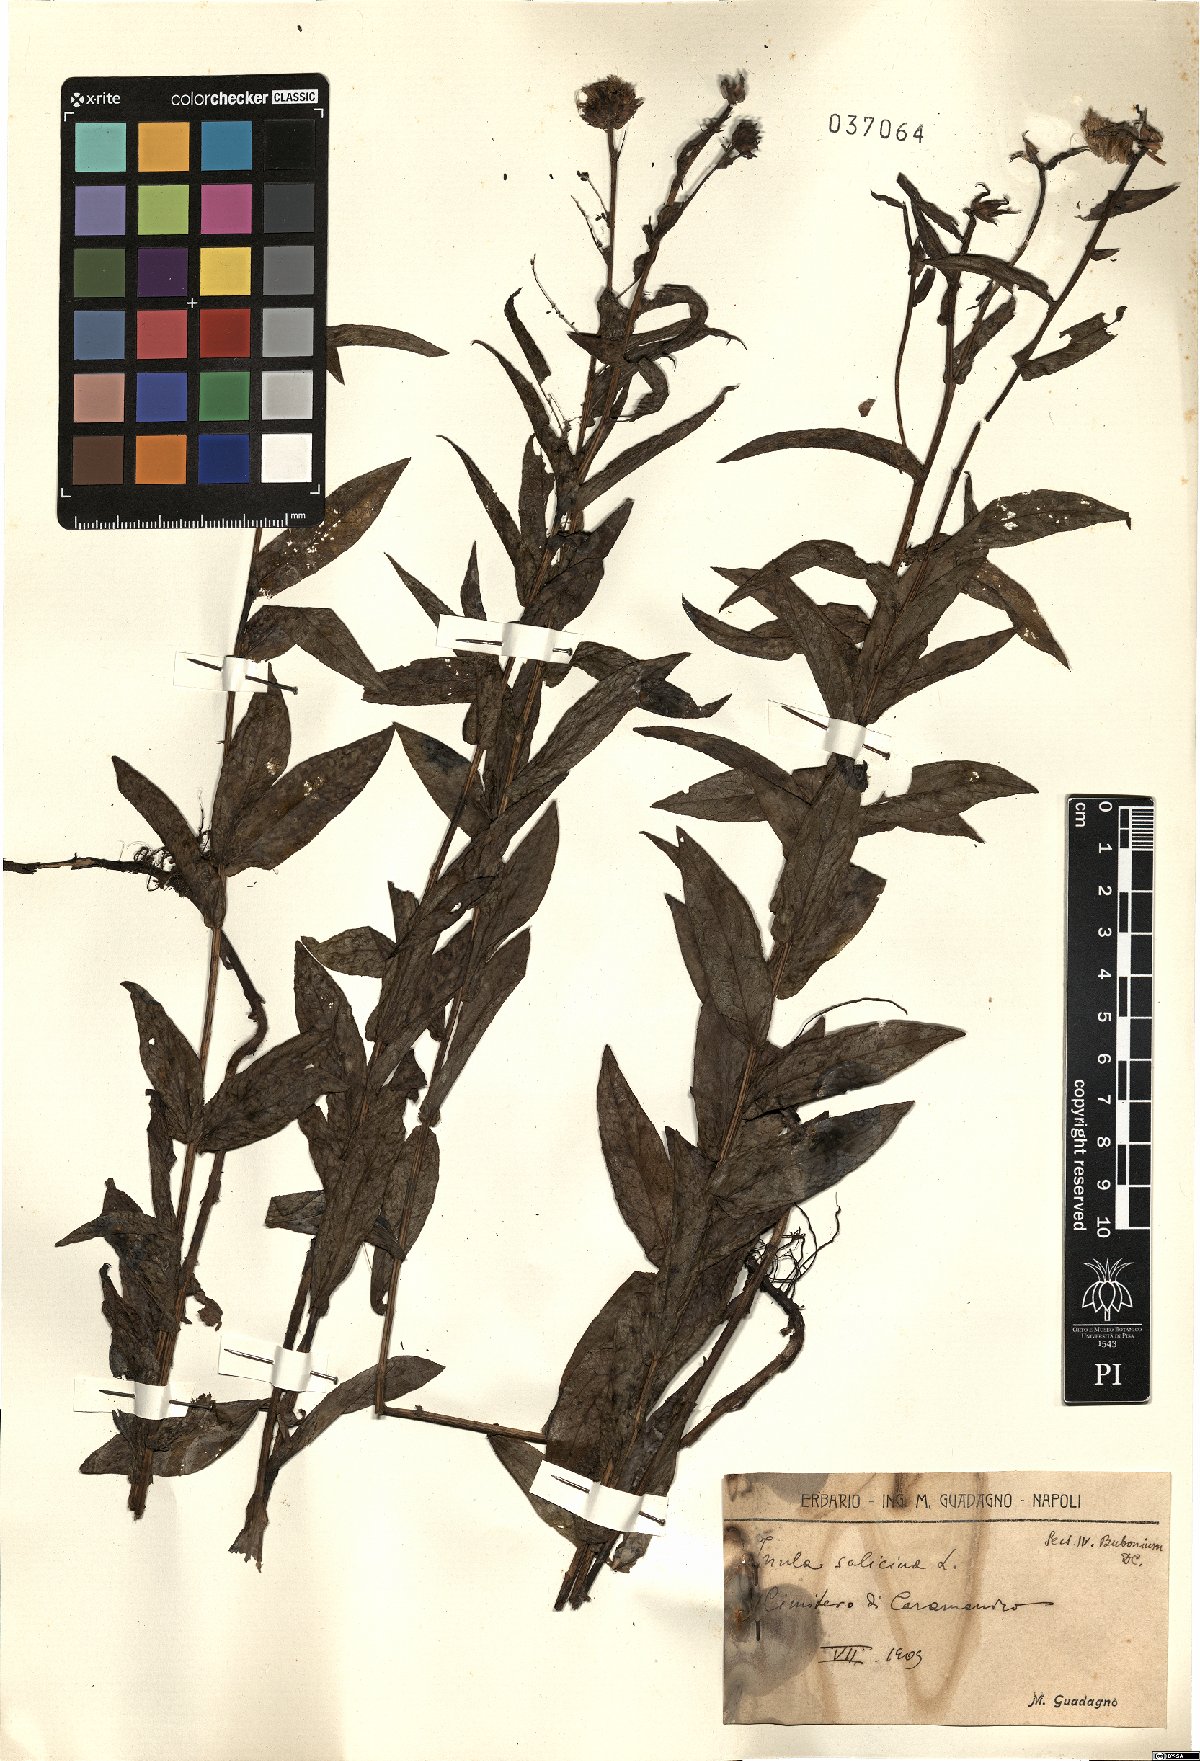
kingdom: Plantae
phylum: Tracheophyta
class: Magnoliopsida
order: Asterales
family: Asteraceae
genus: Pentanema
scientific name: Pentanema salicinum
